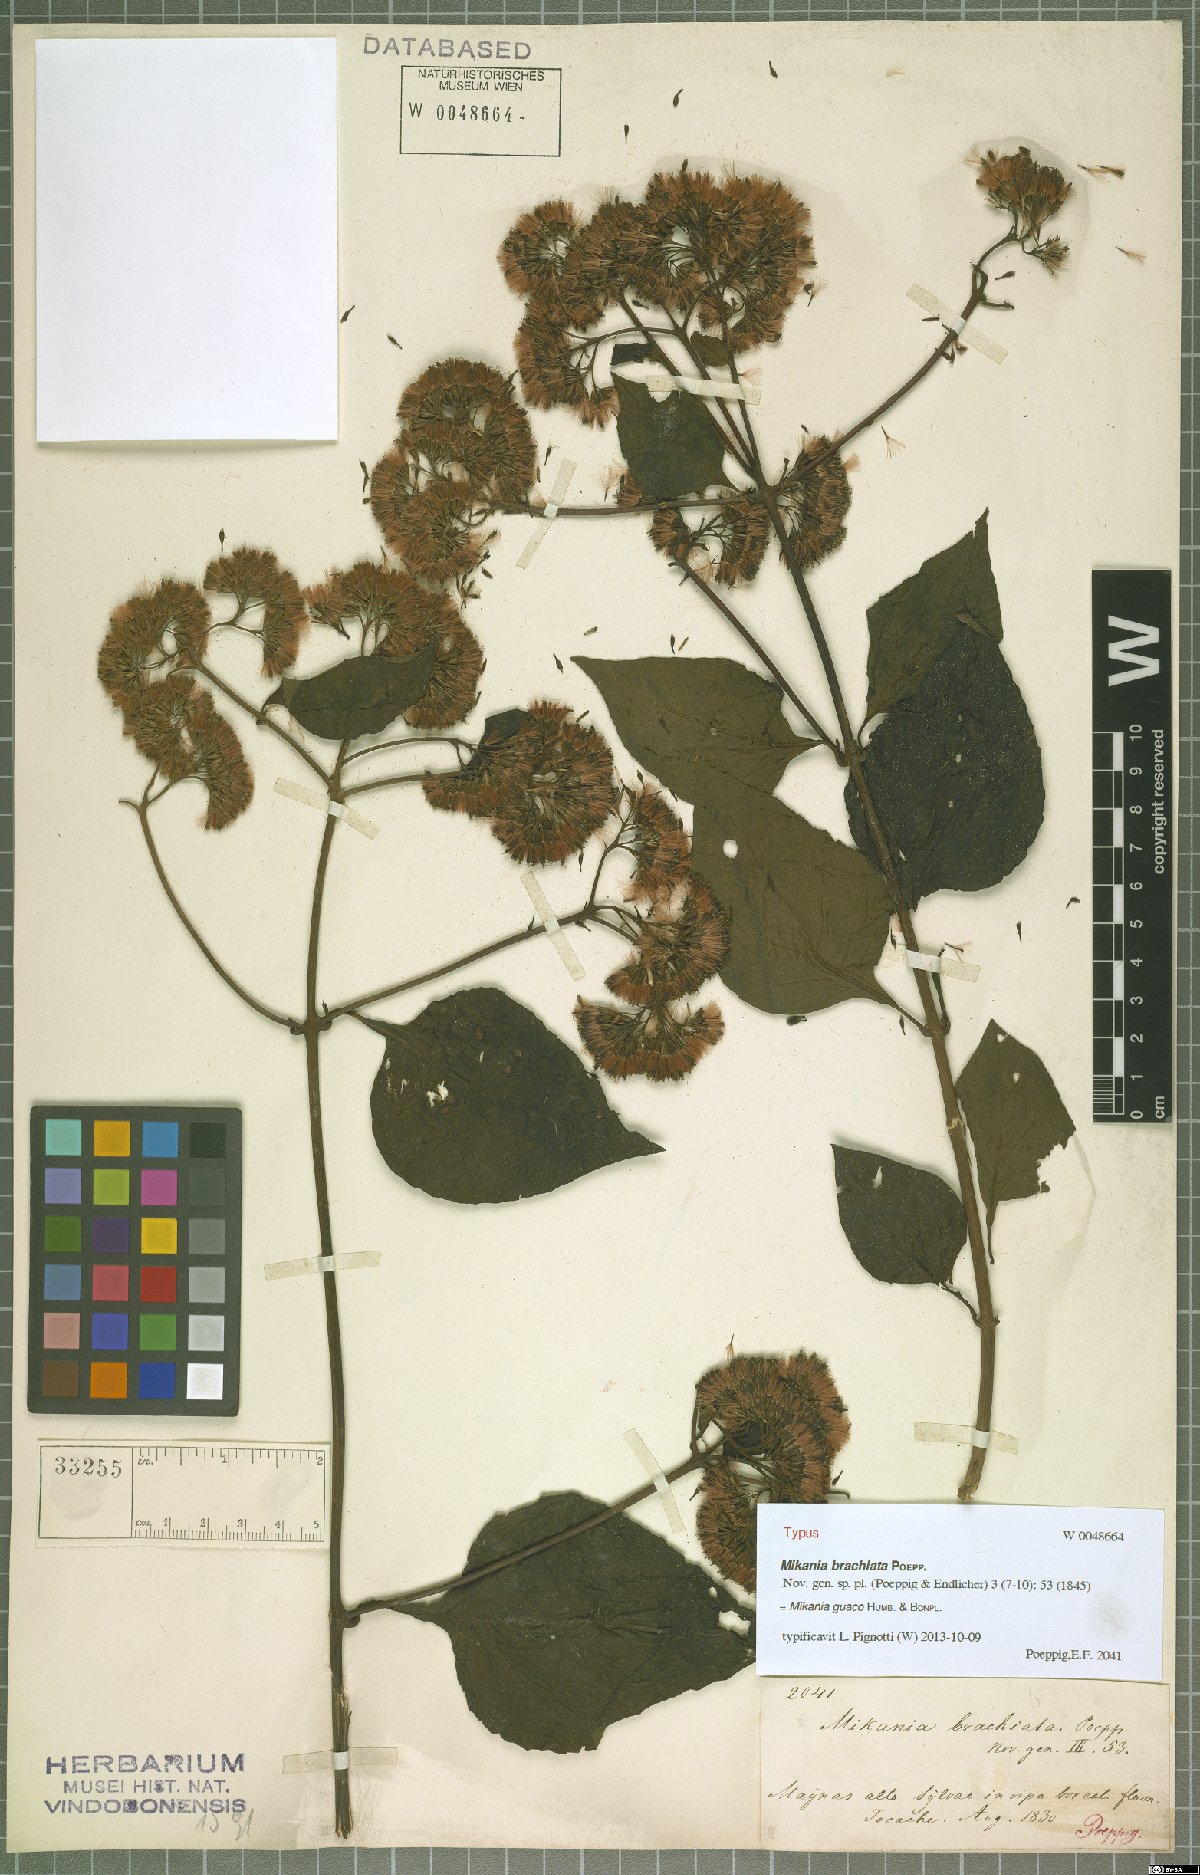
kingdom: Plantae
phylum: Tracheophyta
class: Magnoliopsida
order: Asterales
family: Asteraceae
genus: Mikania
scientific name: Mikania guaco
